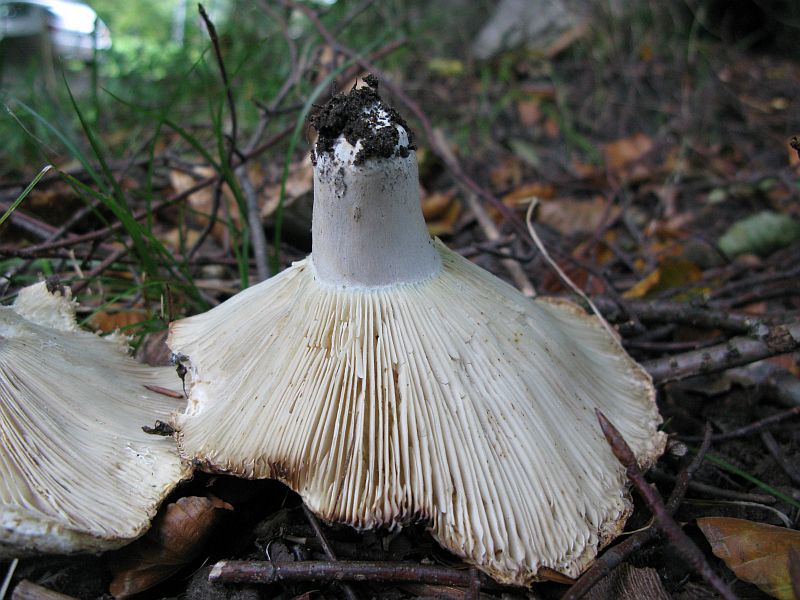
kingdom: Fungi
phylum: Basidiomycota
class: Agaricomycetes
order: Russulales
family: Russulaceae
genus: Russula
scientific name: Russula chloroides
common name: grønhalset tragt-skørhat
